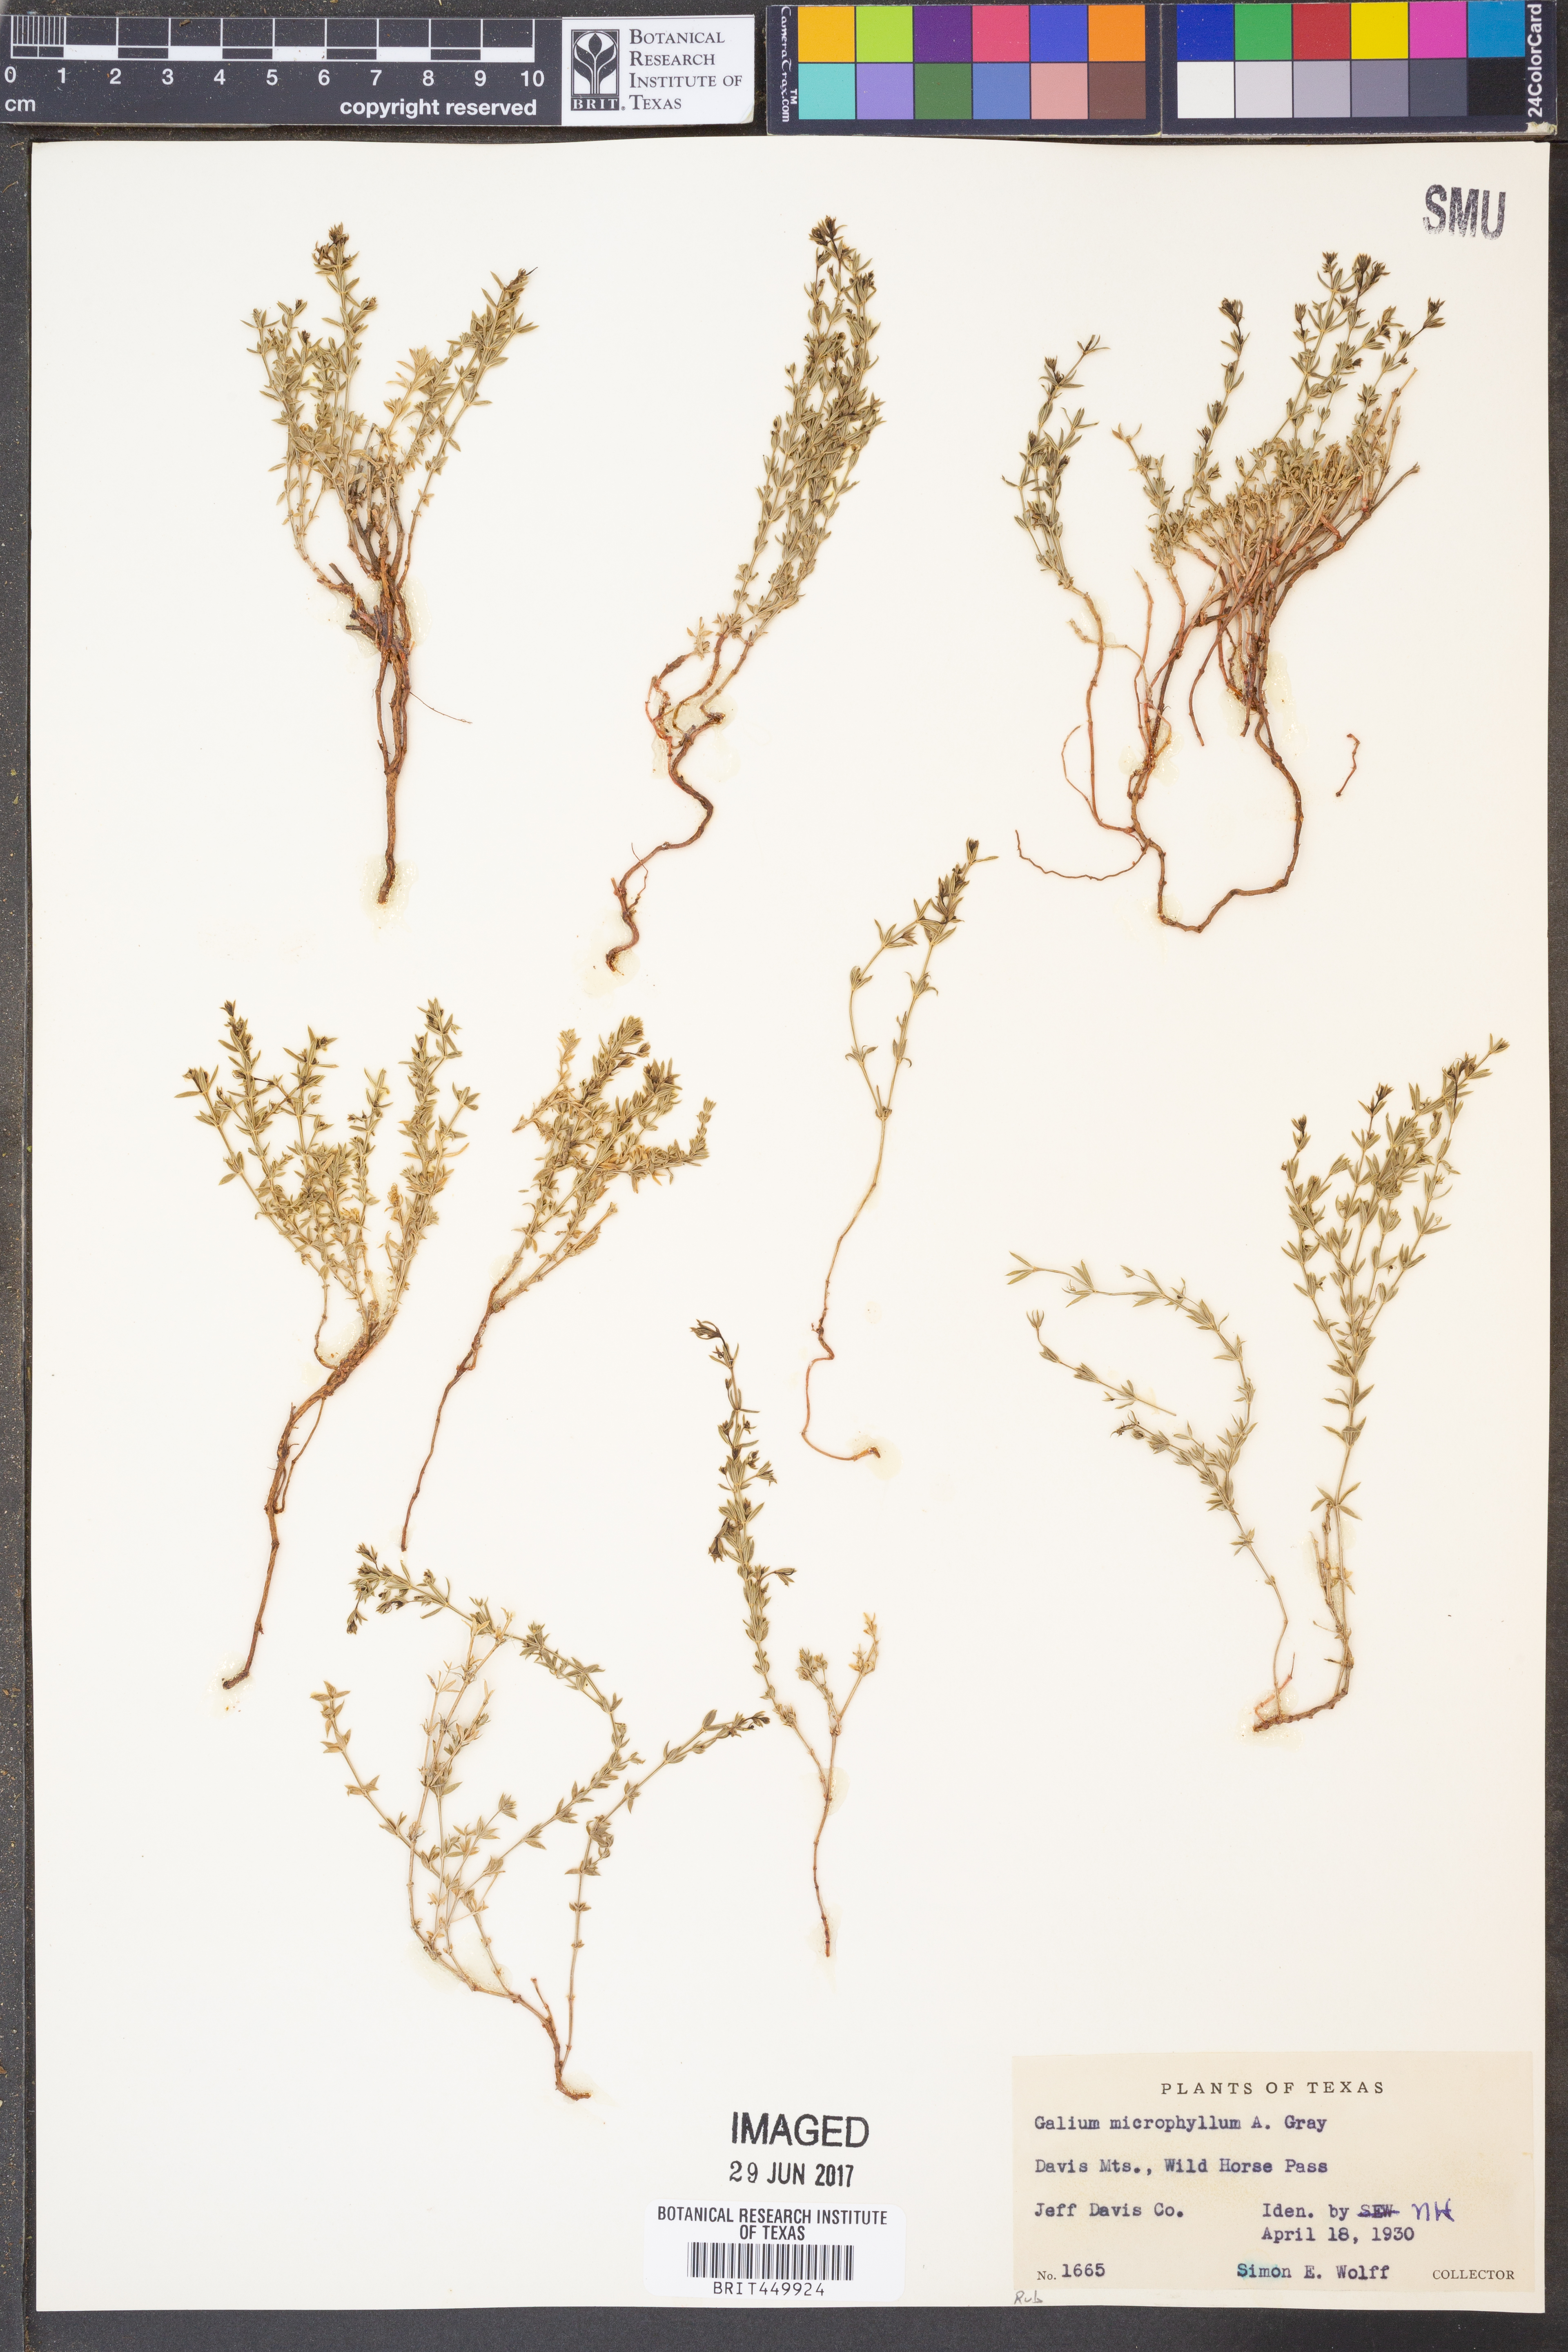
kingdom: Plantae
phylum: Tracheophyta
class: Magnoliopsida
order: Gentianales
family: Rubiaceae
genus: Galium
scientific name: Galium microphyllum
